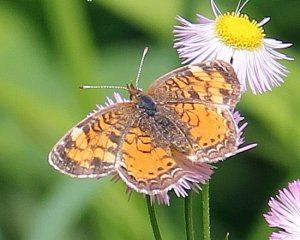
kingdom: Animalia
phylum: Arthropoda
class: Insecta
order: Lepidoptera
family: Nymphalidae
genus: Phyciodes
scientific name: Phyciodes tharos
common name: Northern Crescent
